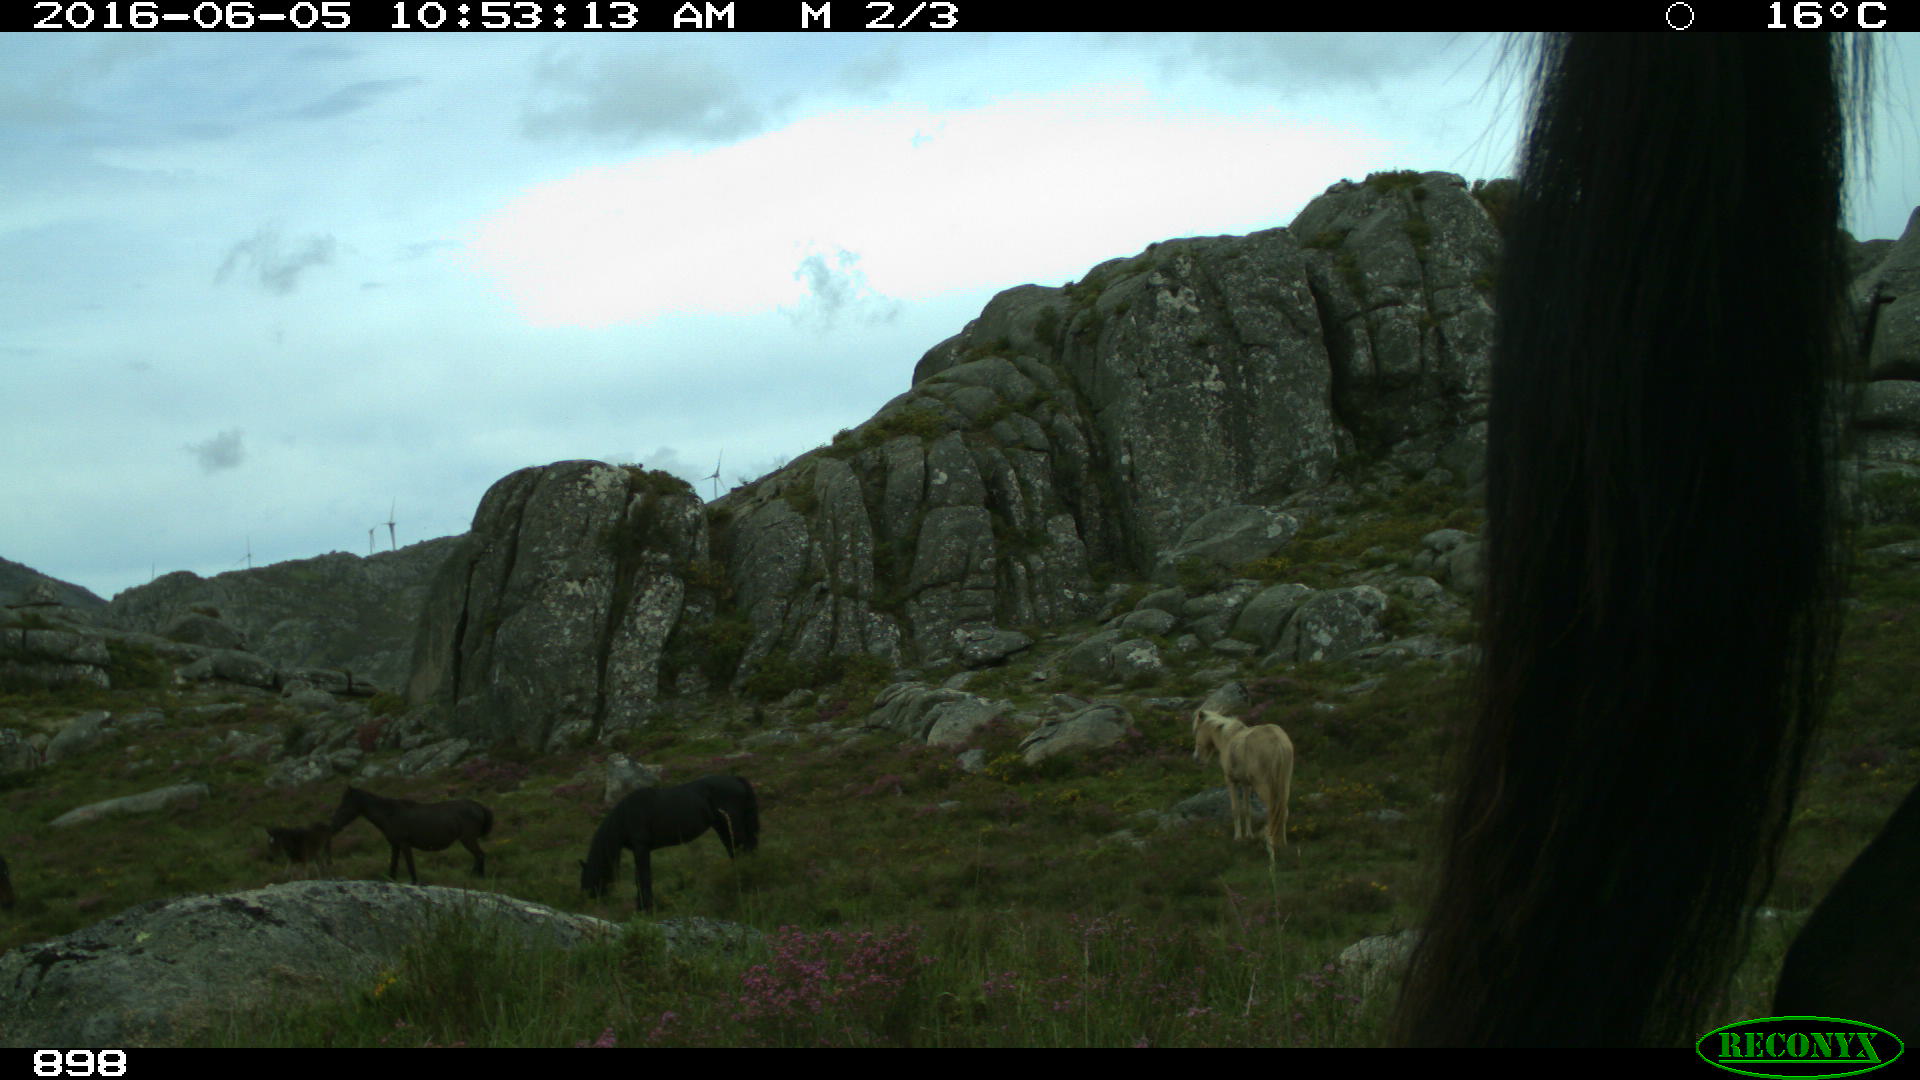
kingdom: Animalia
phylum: Chordata
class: Mammalia
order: Perissodactyla
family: Equidae
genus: Equus
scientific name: Equus caballus
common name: Horse
